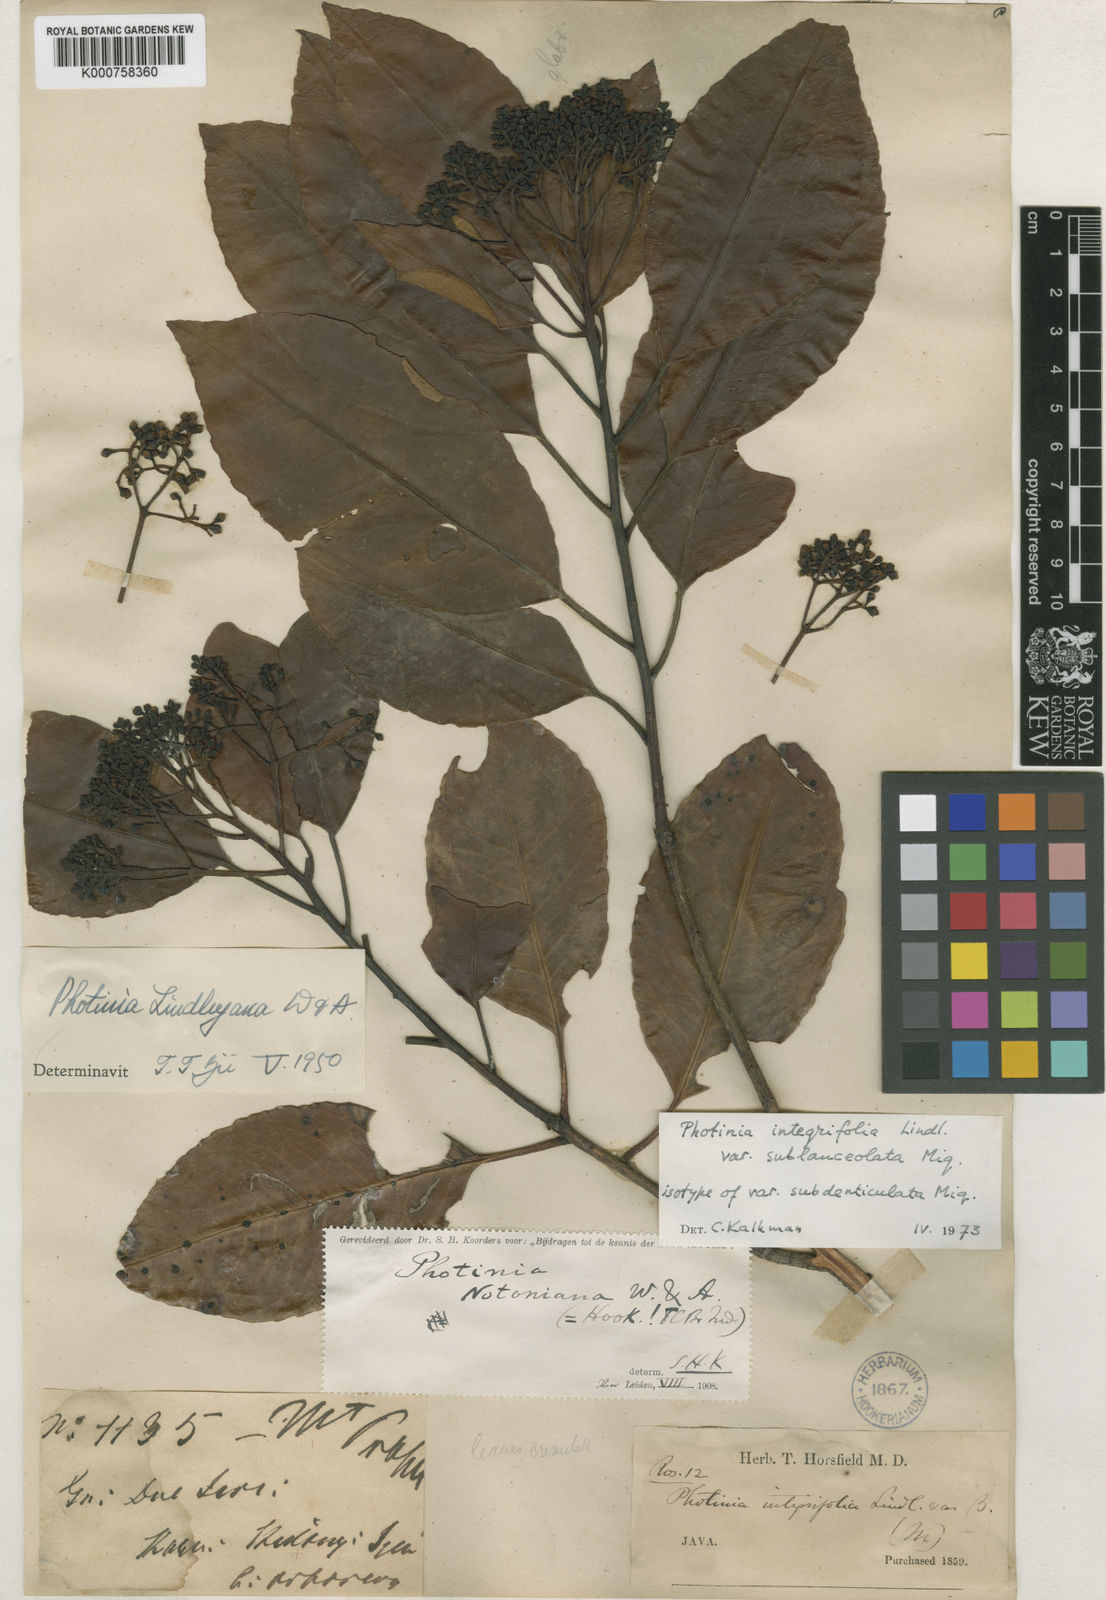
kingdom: Plantae
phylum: Tracheophyta
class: Magnoliopsida
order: Rosales
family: Rosaceae
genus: Photinia
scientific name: Photinia integrifolia
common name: Himalayan chokeberry
